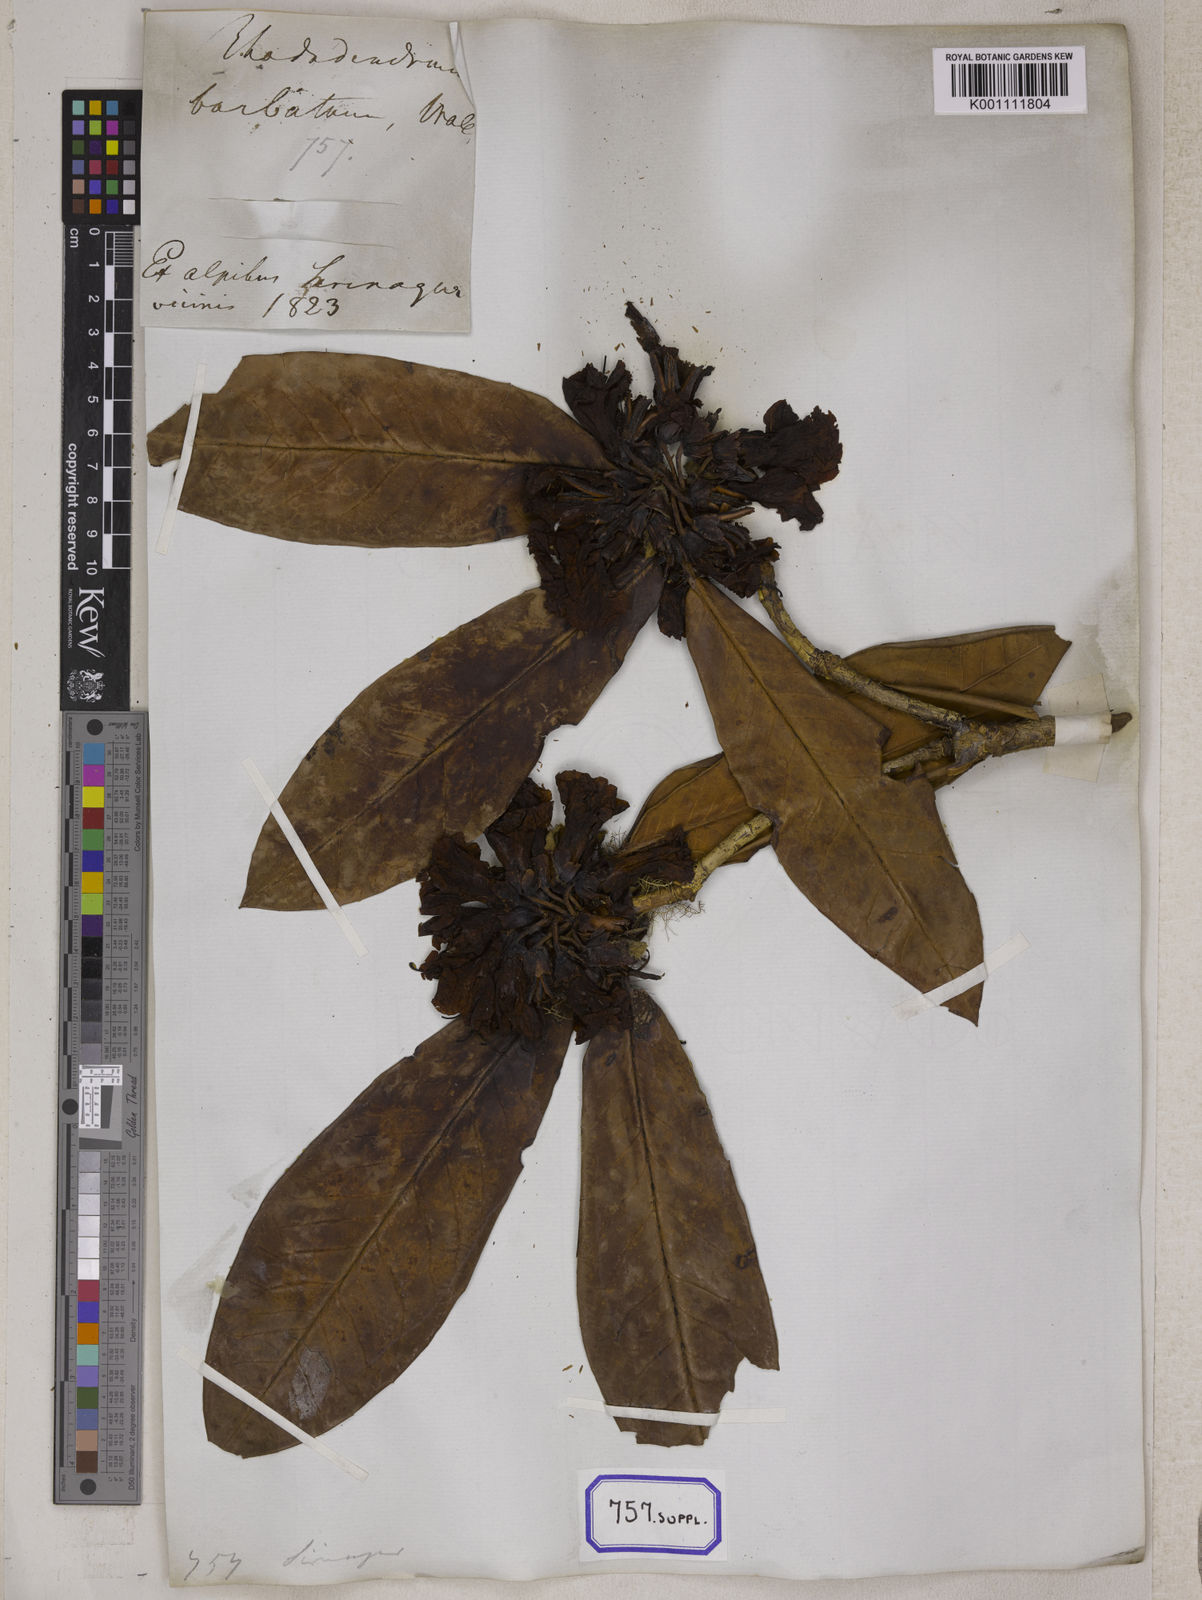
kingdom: Plantae
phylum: Tracheophyta
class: Magnoliopsida
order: Ericales
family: Ericaceae
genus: Rhododendron
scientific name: Rhododendron
